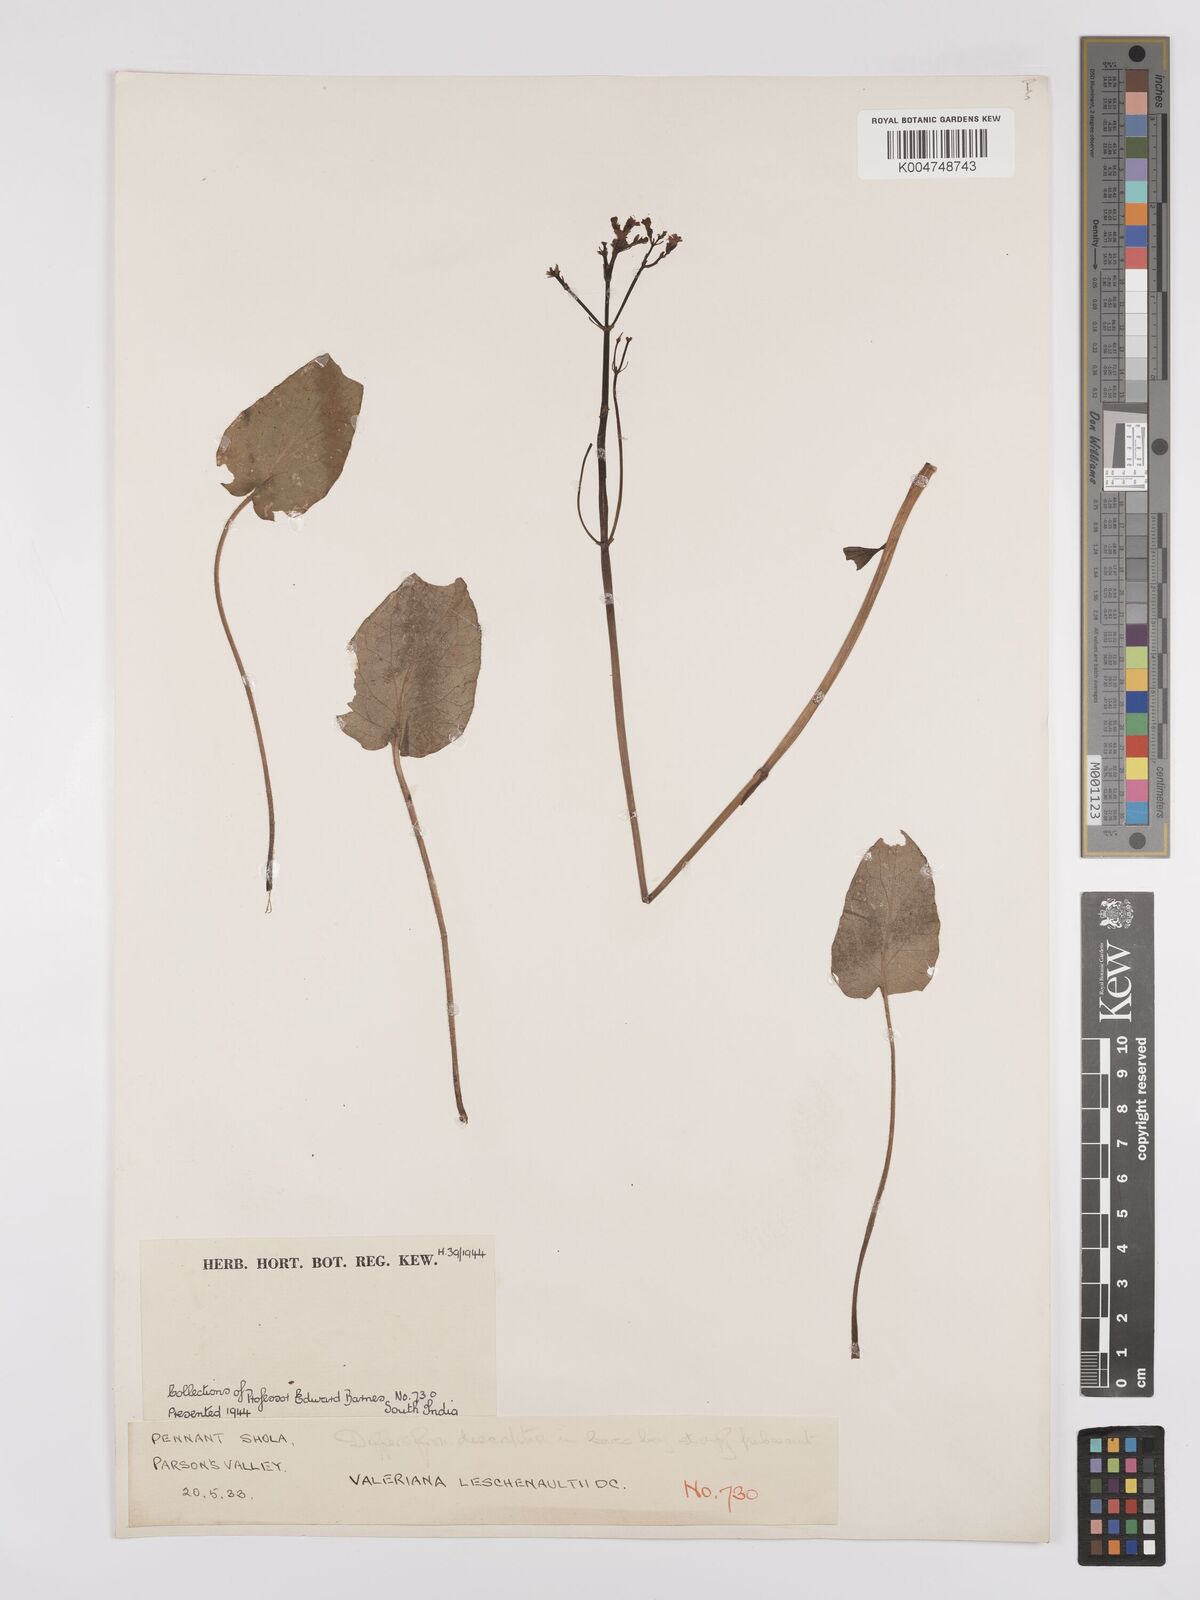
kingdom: Plantae
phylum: Tracheophyta
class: Magnoliopsida
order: Dipsacales
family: Caprifoliaceae
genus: Valeriana
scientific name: Valeriana leschenaultii
